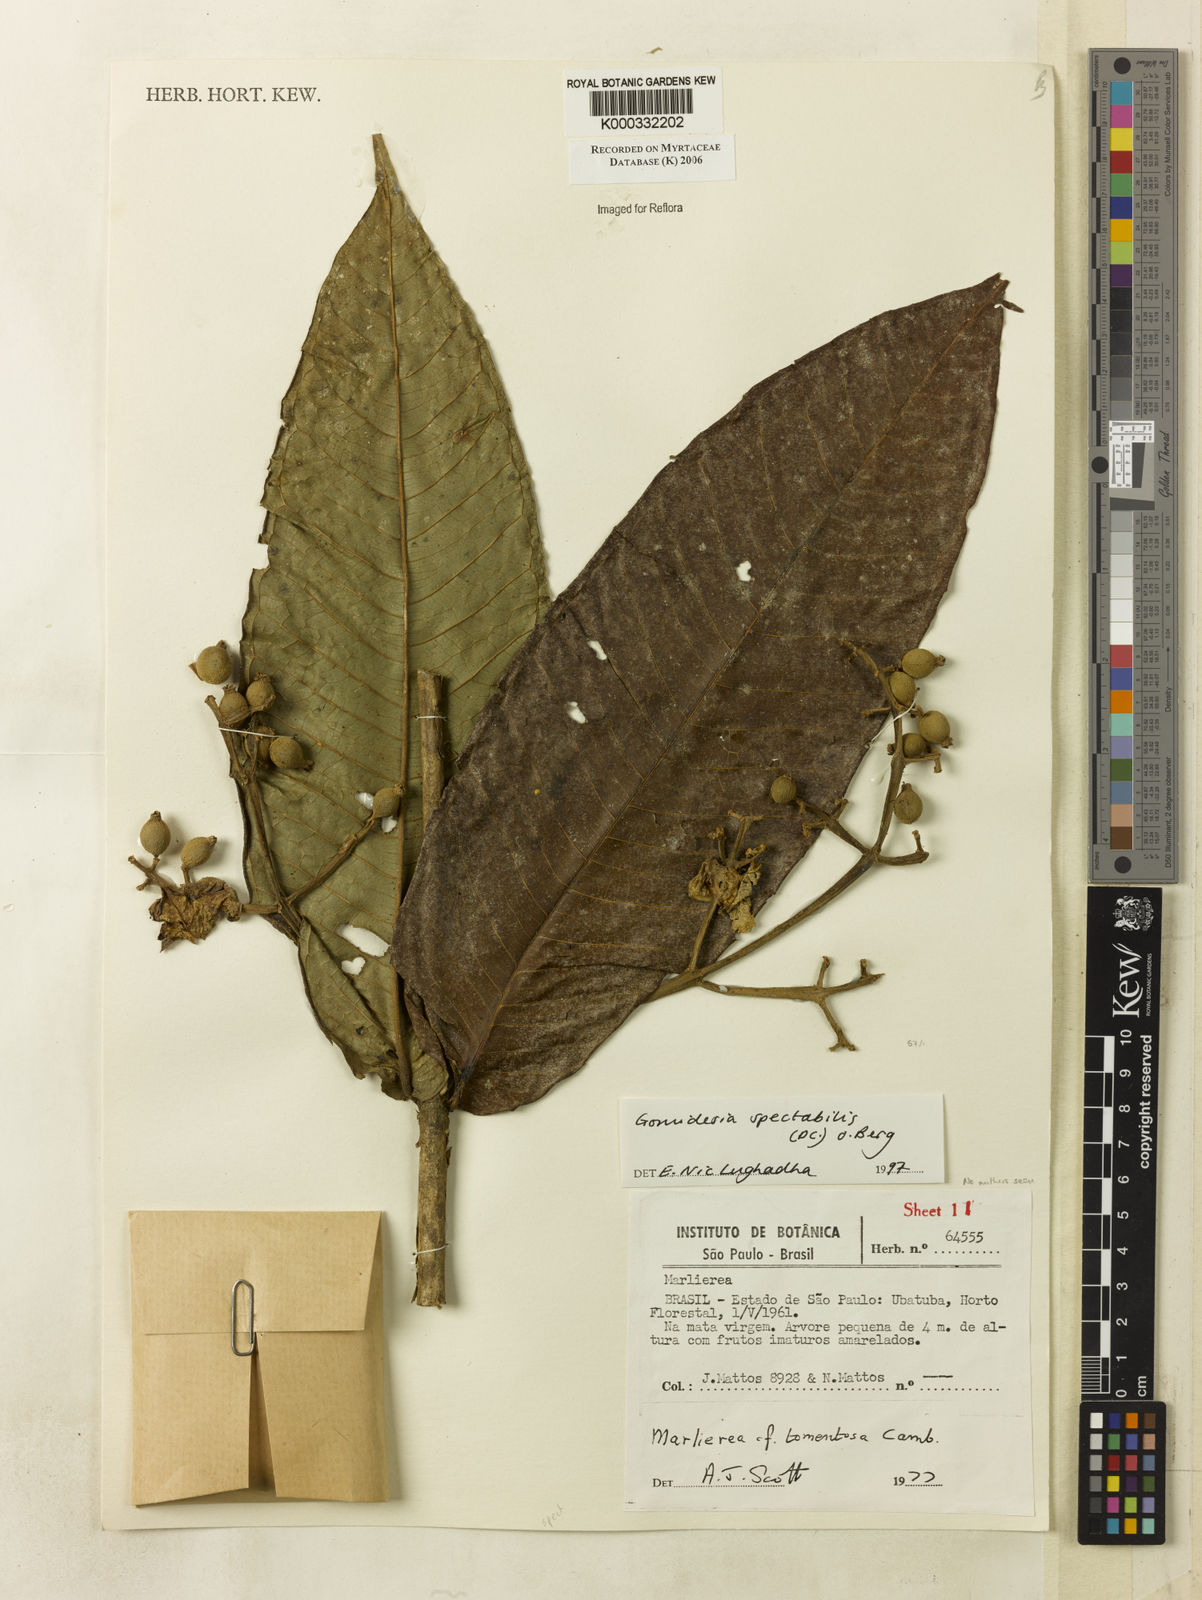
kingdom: Plantae
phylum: Tracheophyta
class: Magnoliopsida
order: Myrtales
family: Myrtaceae
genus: Myrcia
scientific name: Myrcia spectabilis
